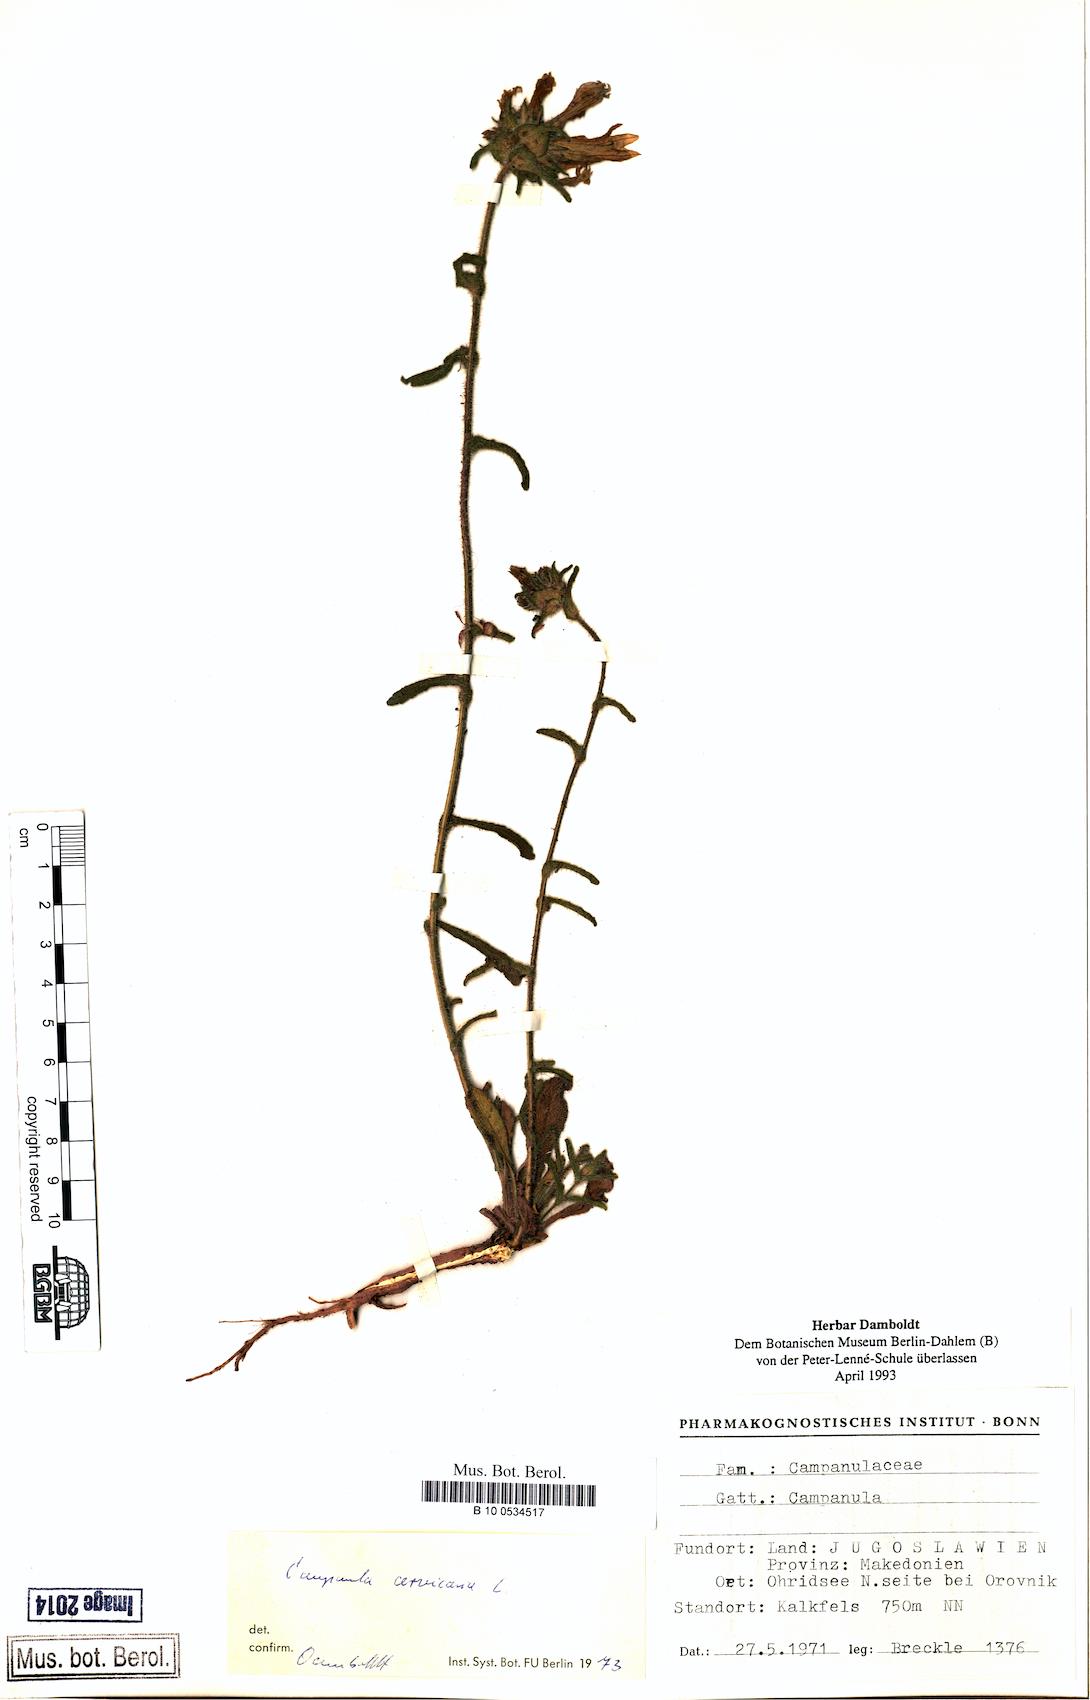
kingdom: Plantae
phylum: Tracheophyta
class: Magnoliopsida
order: Asterales
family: Campanulaceae
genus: Campanula
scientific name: Campanula cervicaria
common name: Bristly bellflower
